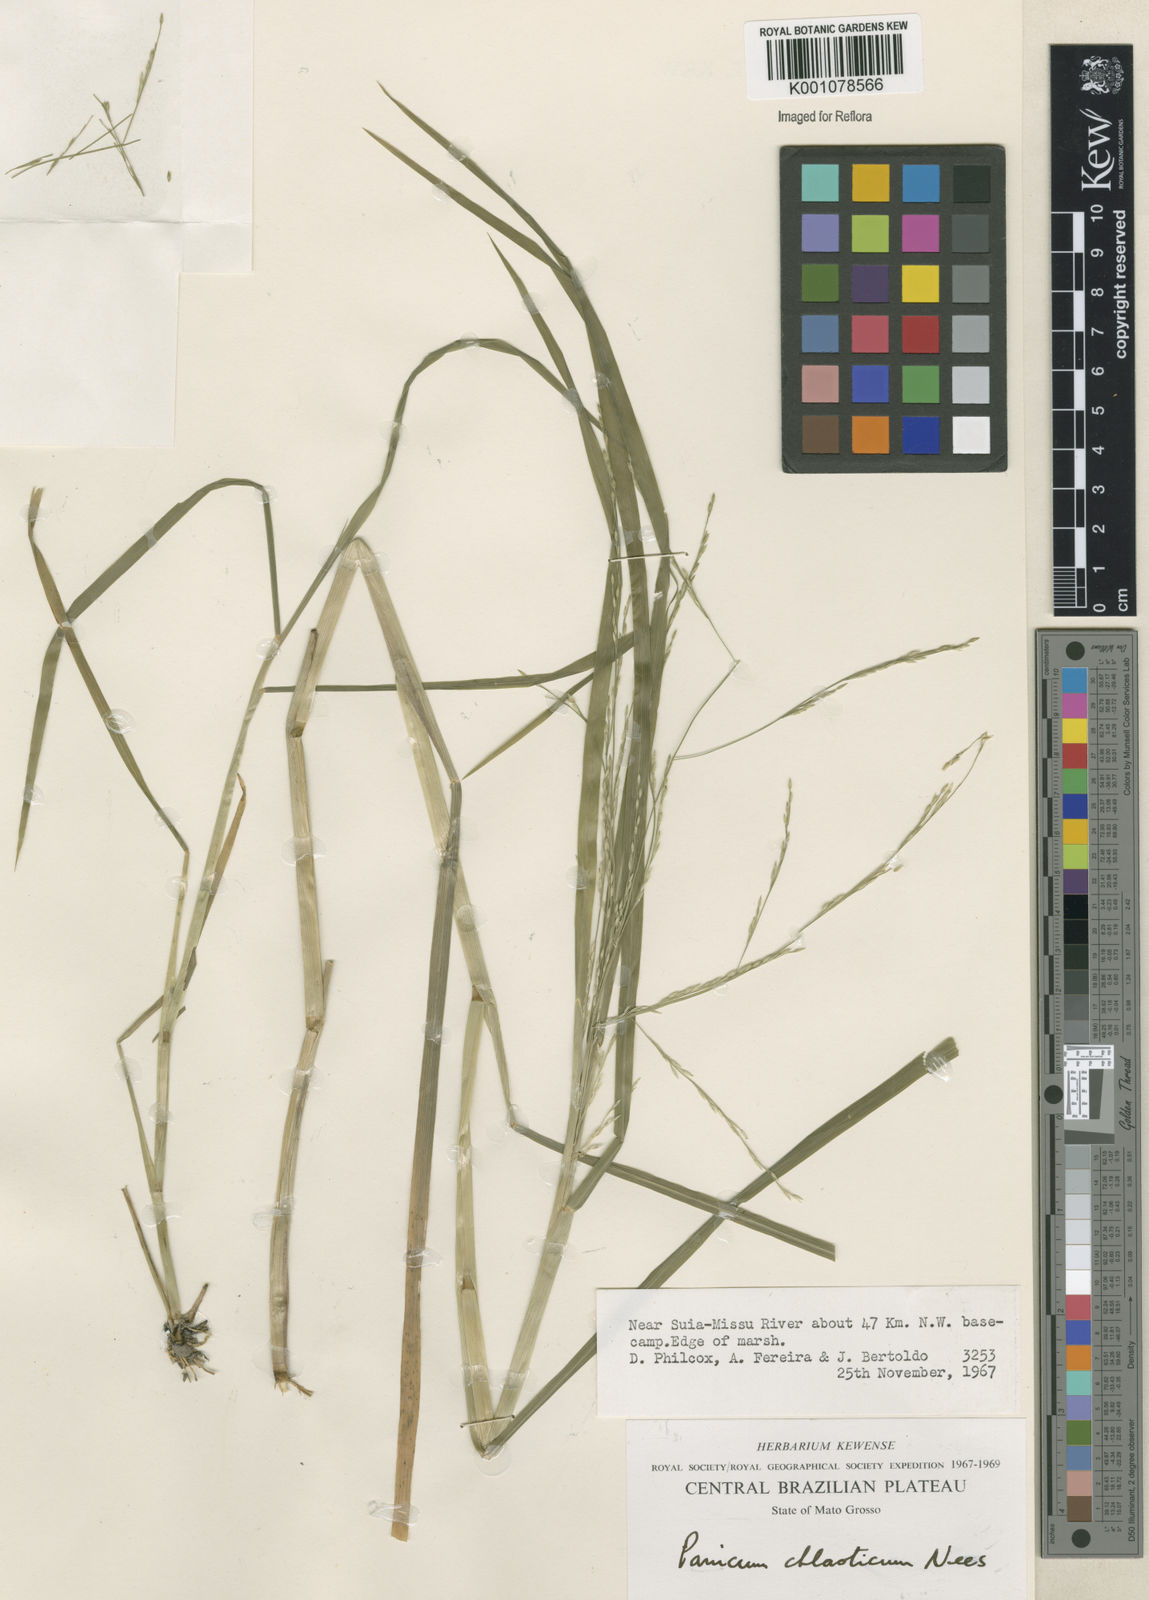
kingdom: Plantae
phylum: Tracheophyta
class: Liliopsida
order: Poales
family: Poaceae
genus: Panicum
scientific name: Panicum dichotomiflorum
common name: Autumn millet
